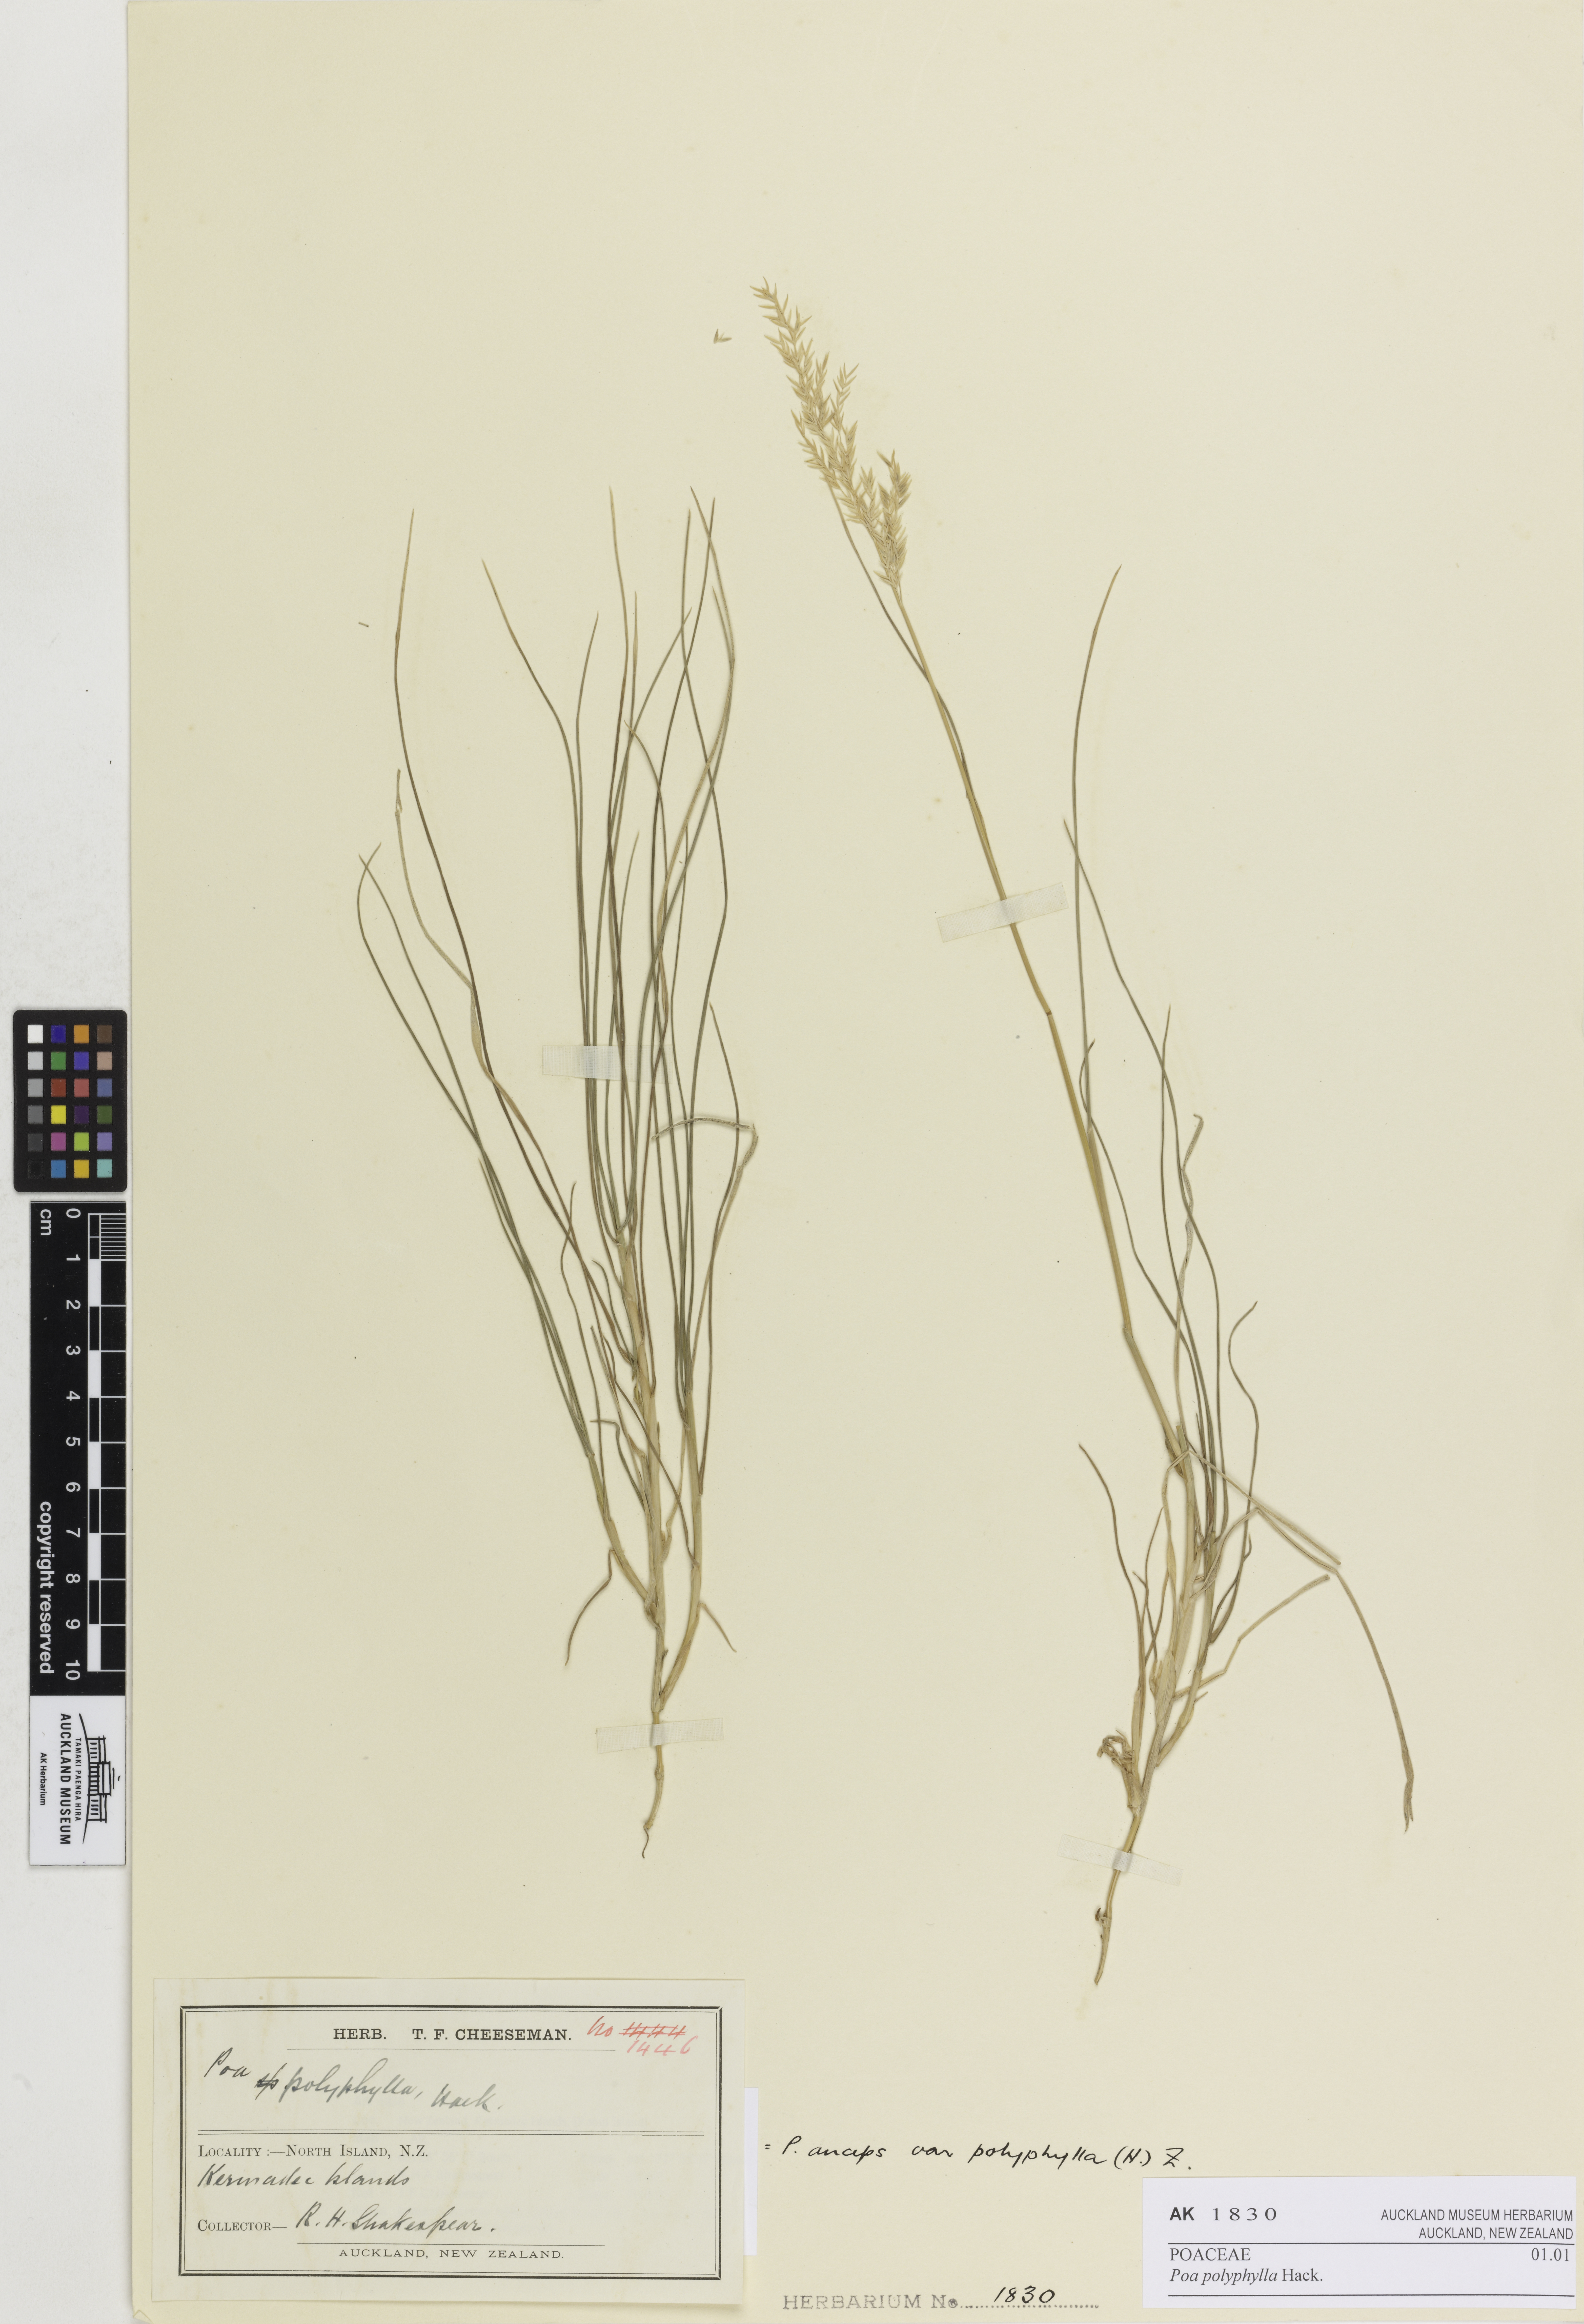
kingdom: Plantae
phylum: Tracheophyta
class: Liliopsida
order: Poales
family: Poaceae
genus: Poa
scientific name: Poa anceps
